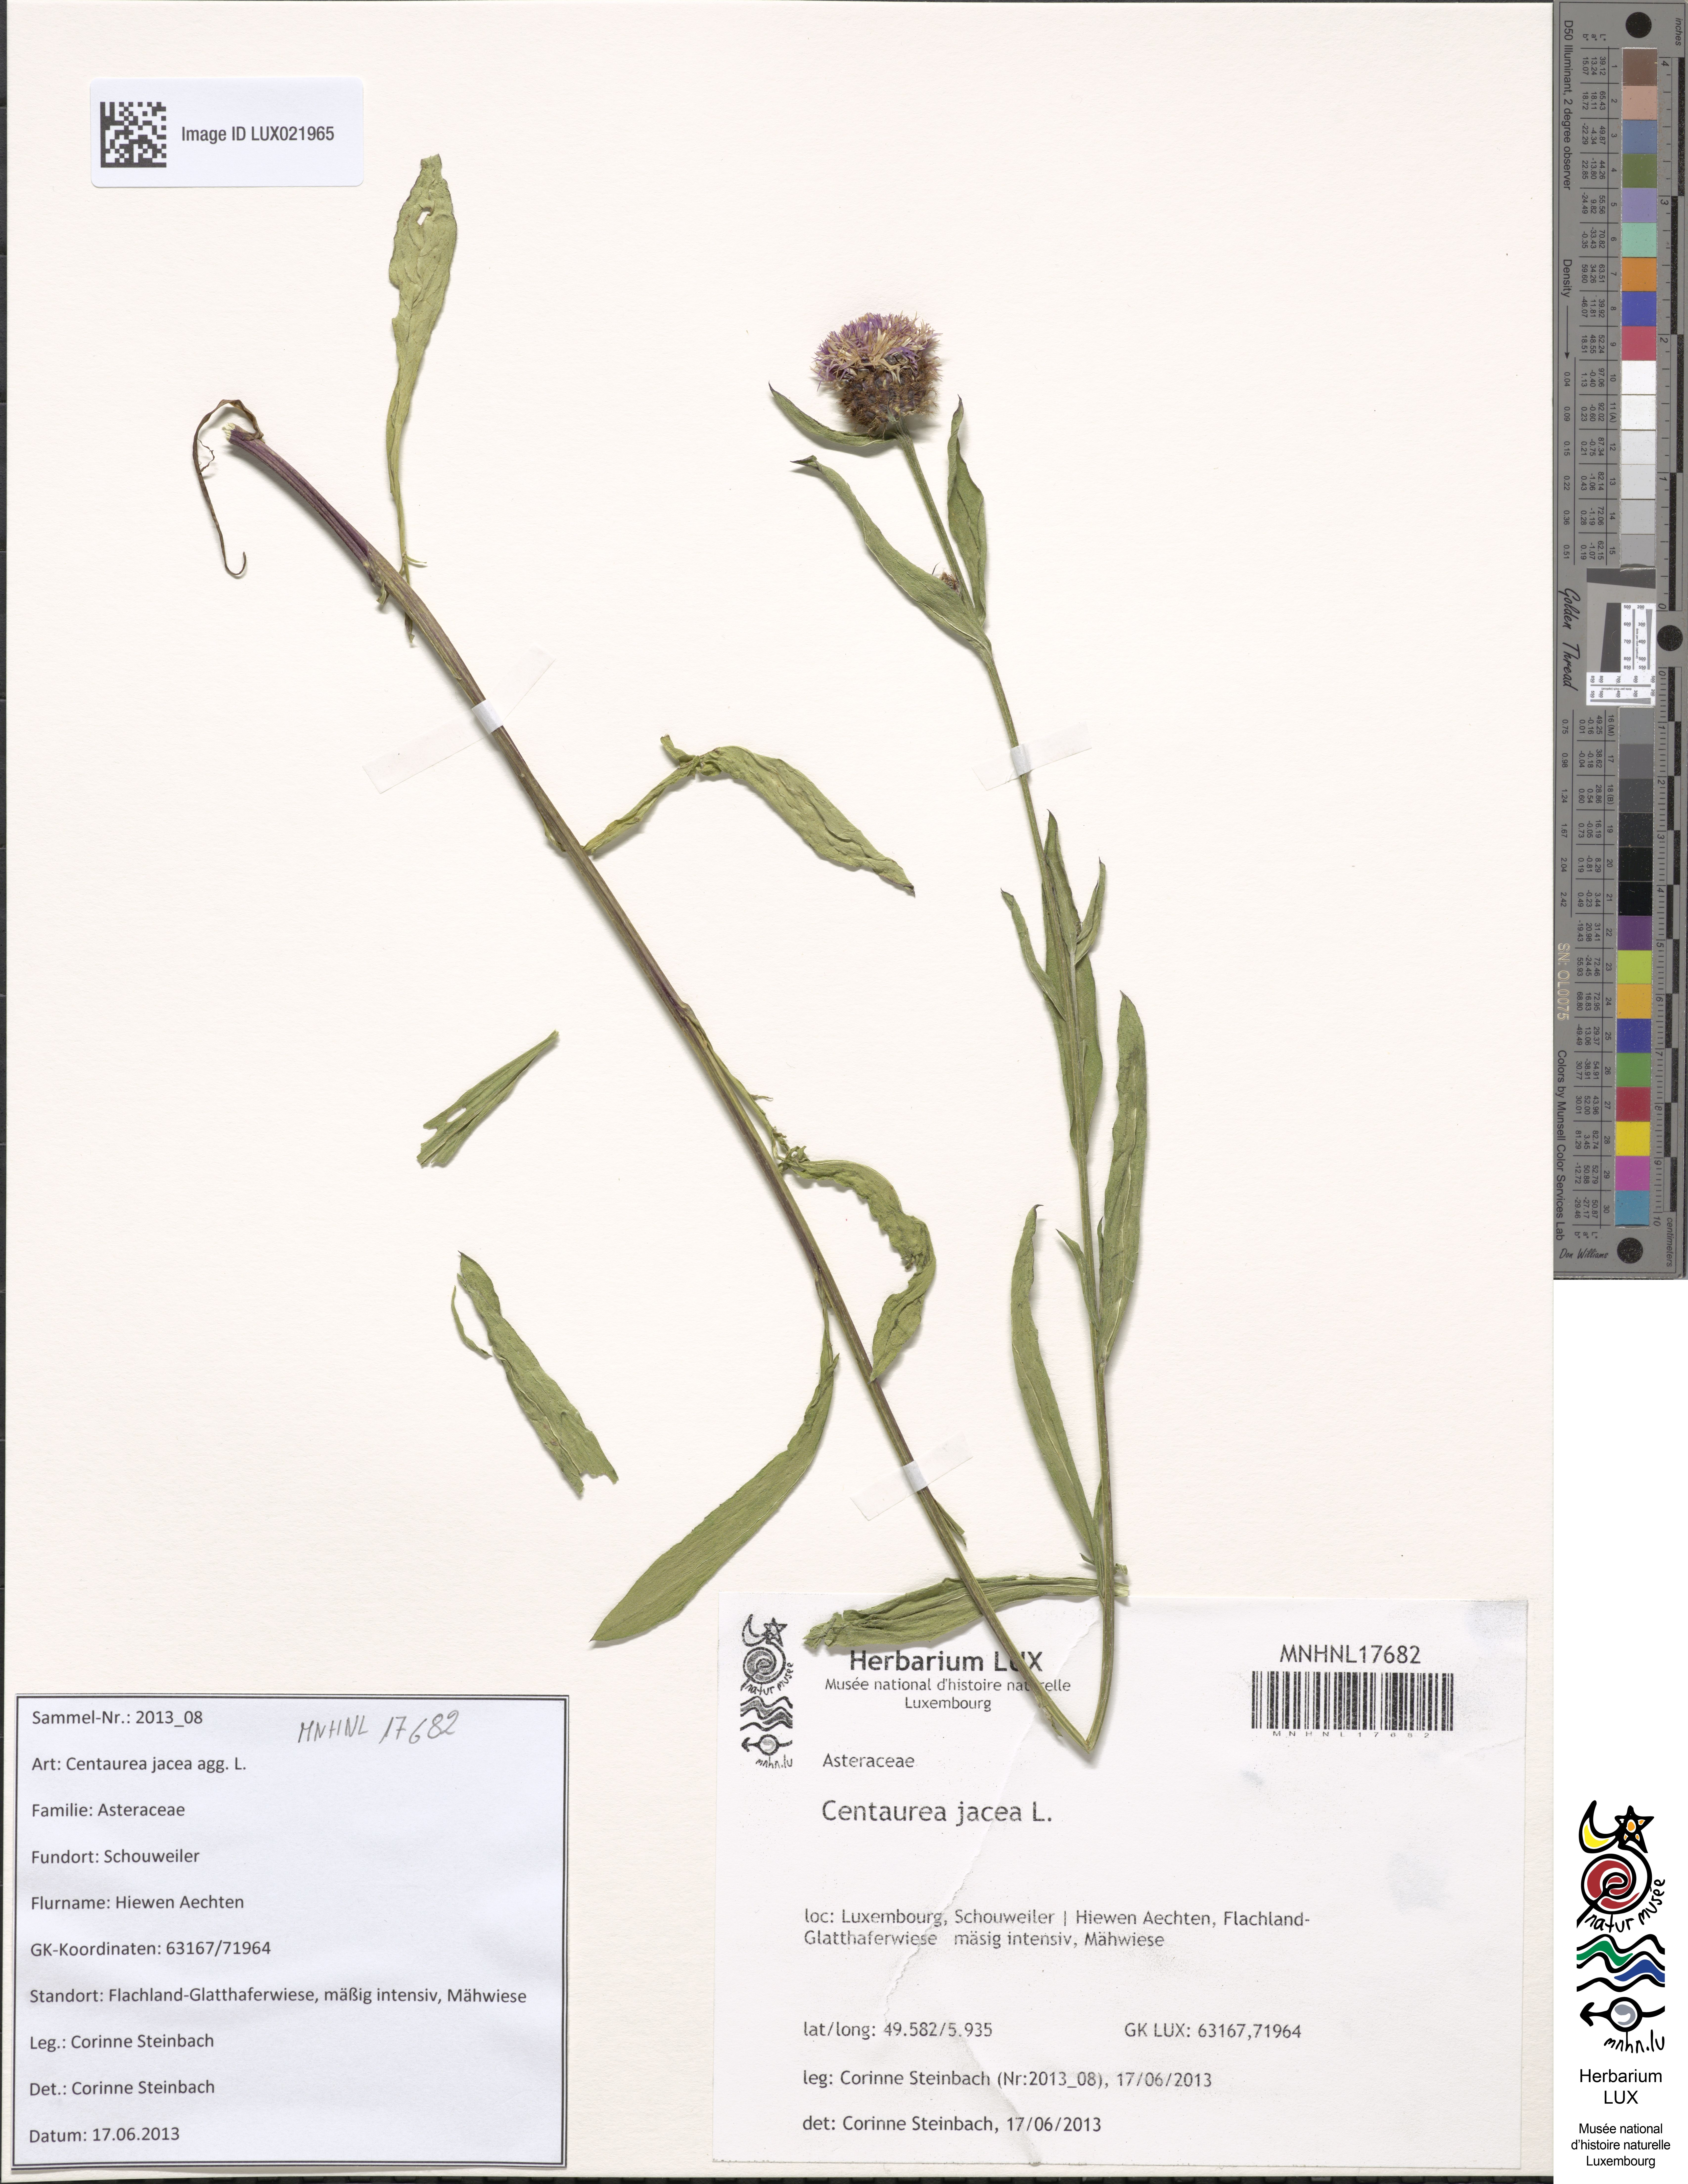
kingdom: Plantae
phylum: Tracheophyta
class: Magnoliopsida
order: Asterales
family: Asteraceae
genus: Centaurea
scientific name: Centaurea jacea
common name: Brown knapweed
